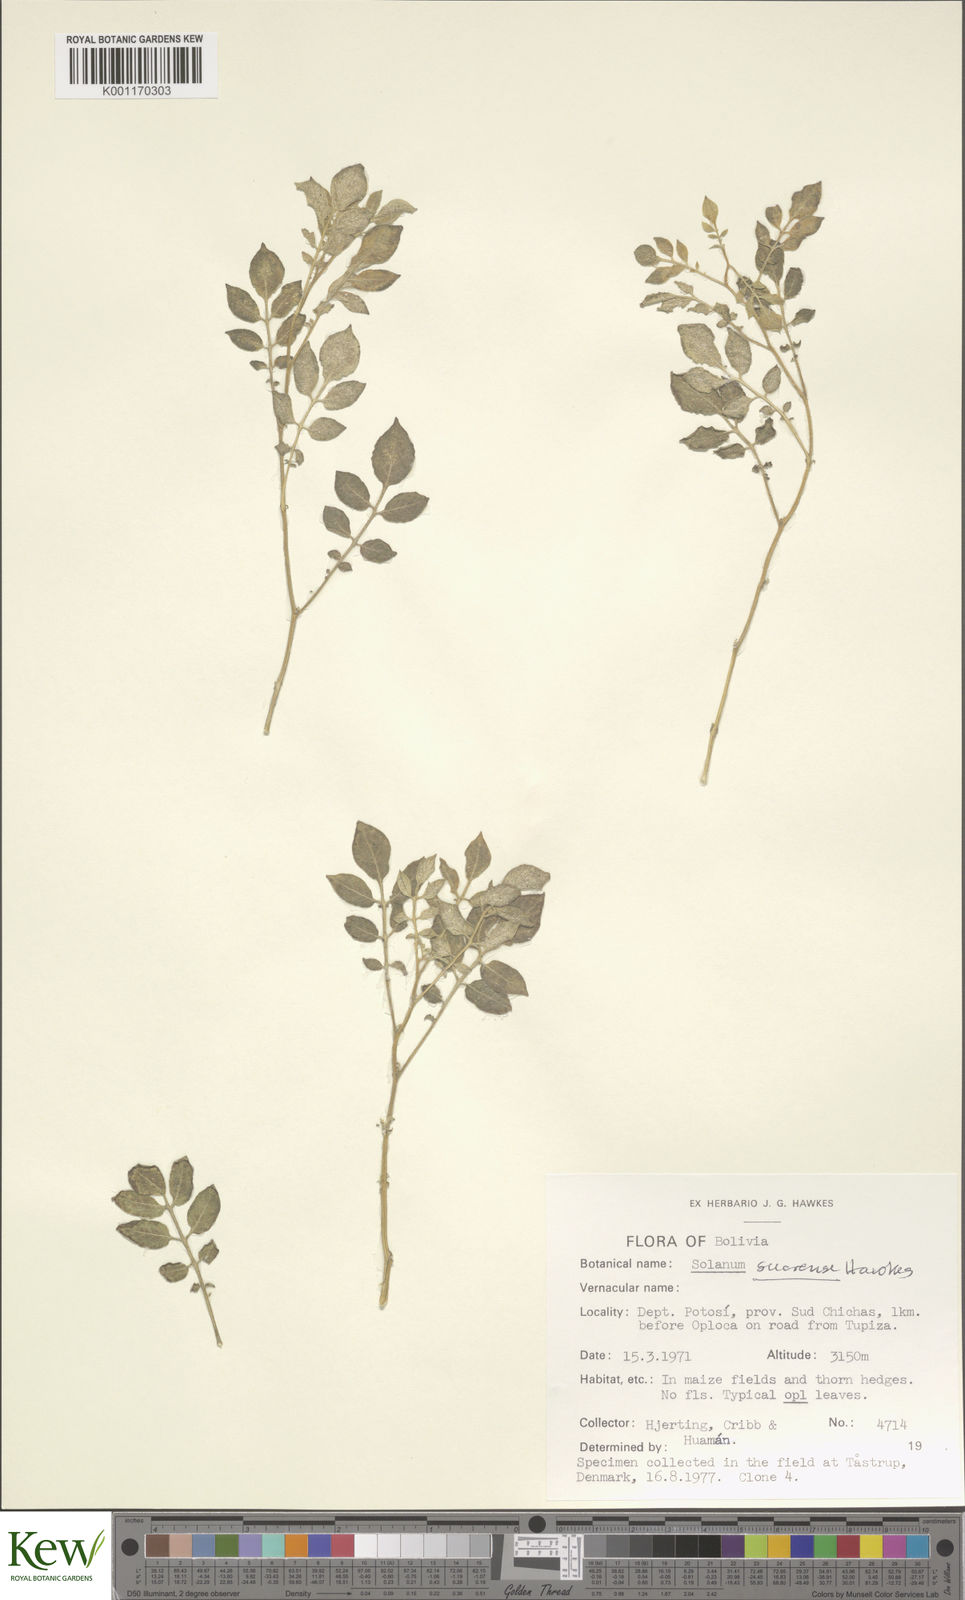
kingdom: Plantae
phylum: Tracheophyta
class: Magnoliopsida
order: Solanales
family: Solanaceae
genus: Solanum
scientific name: Solanum brevicaule
